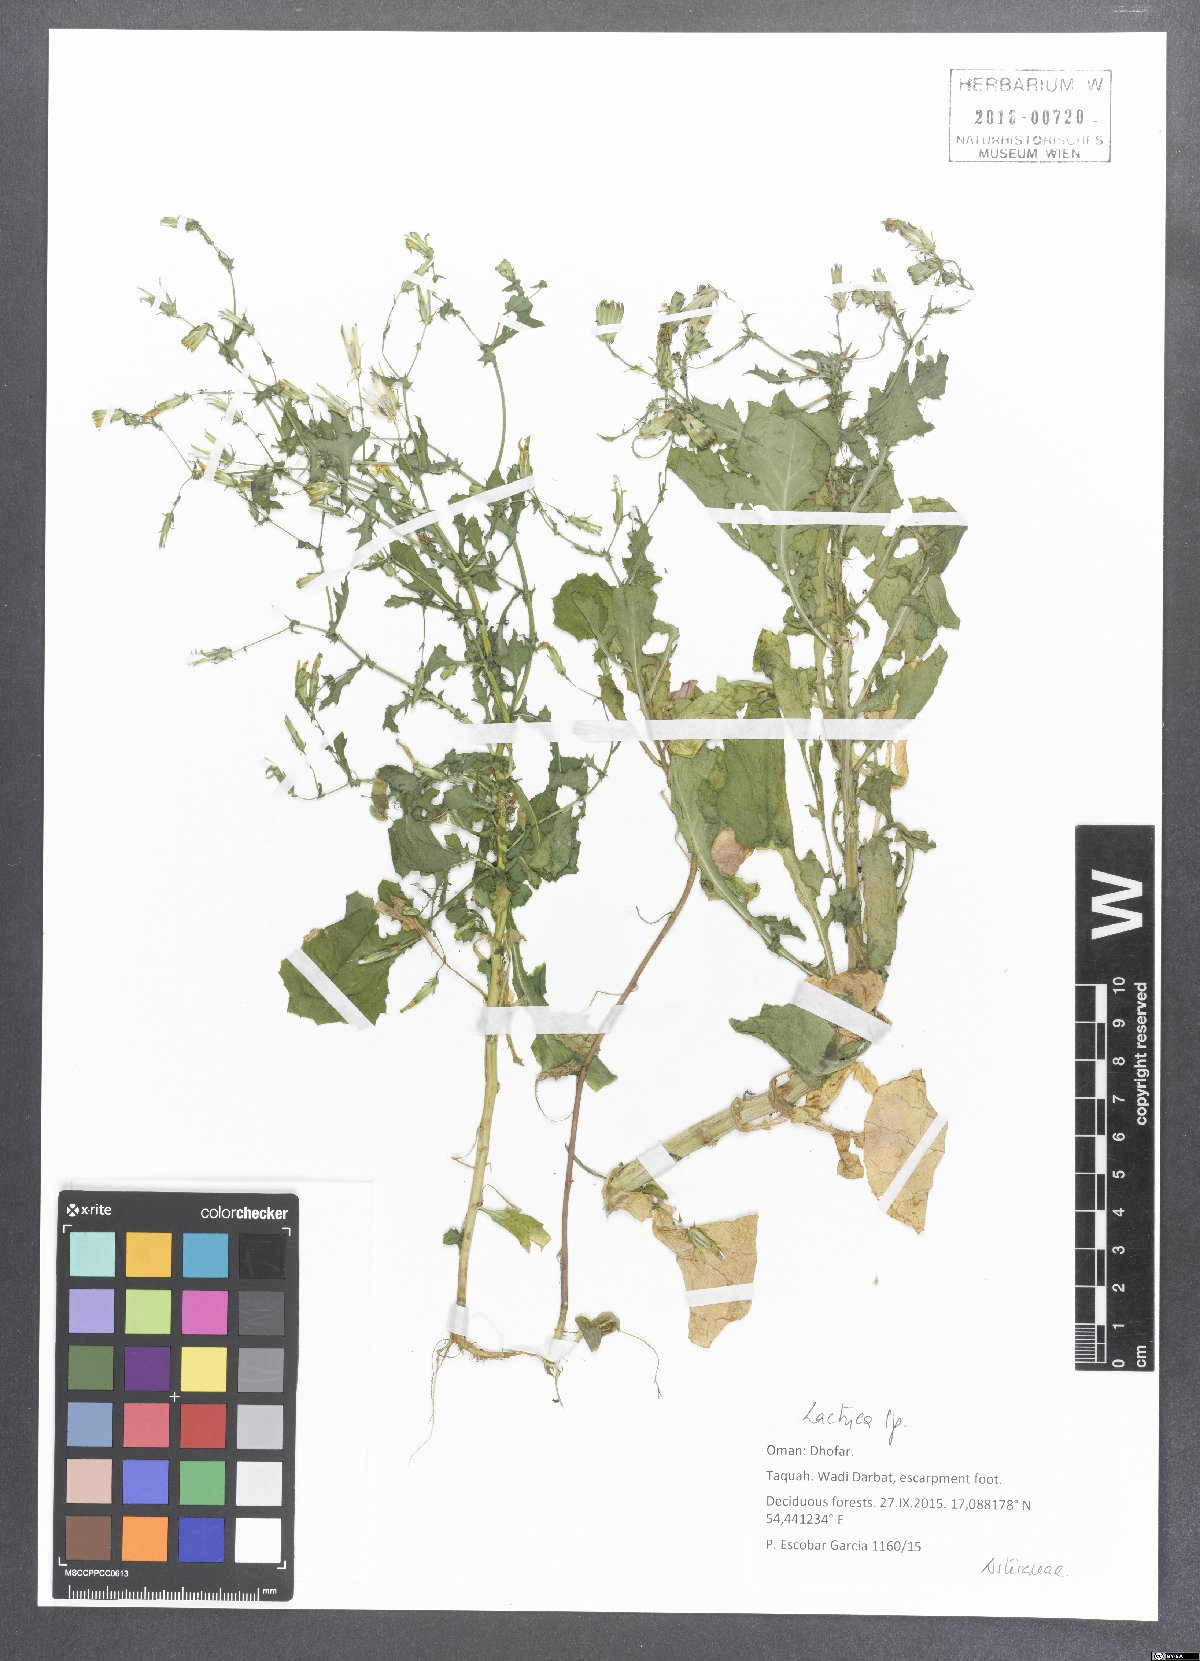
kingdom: Plantae
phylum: Tracheophyta
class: Magnoliopsida
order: Asterales
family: Asteraceae
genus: Lactuca
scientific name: Lactuca
